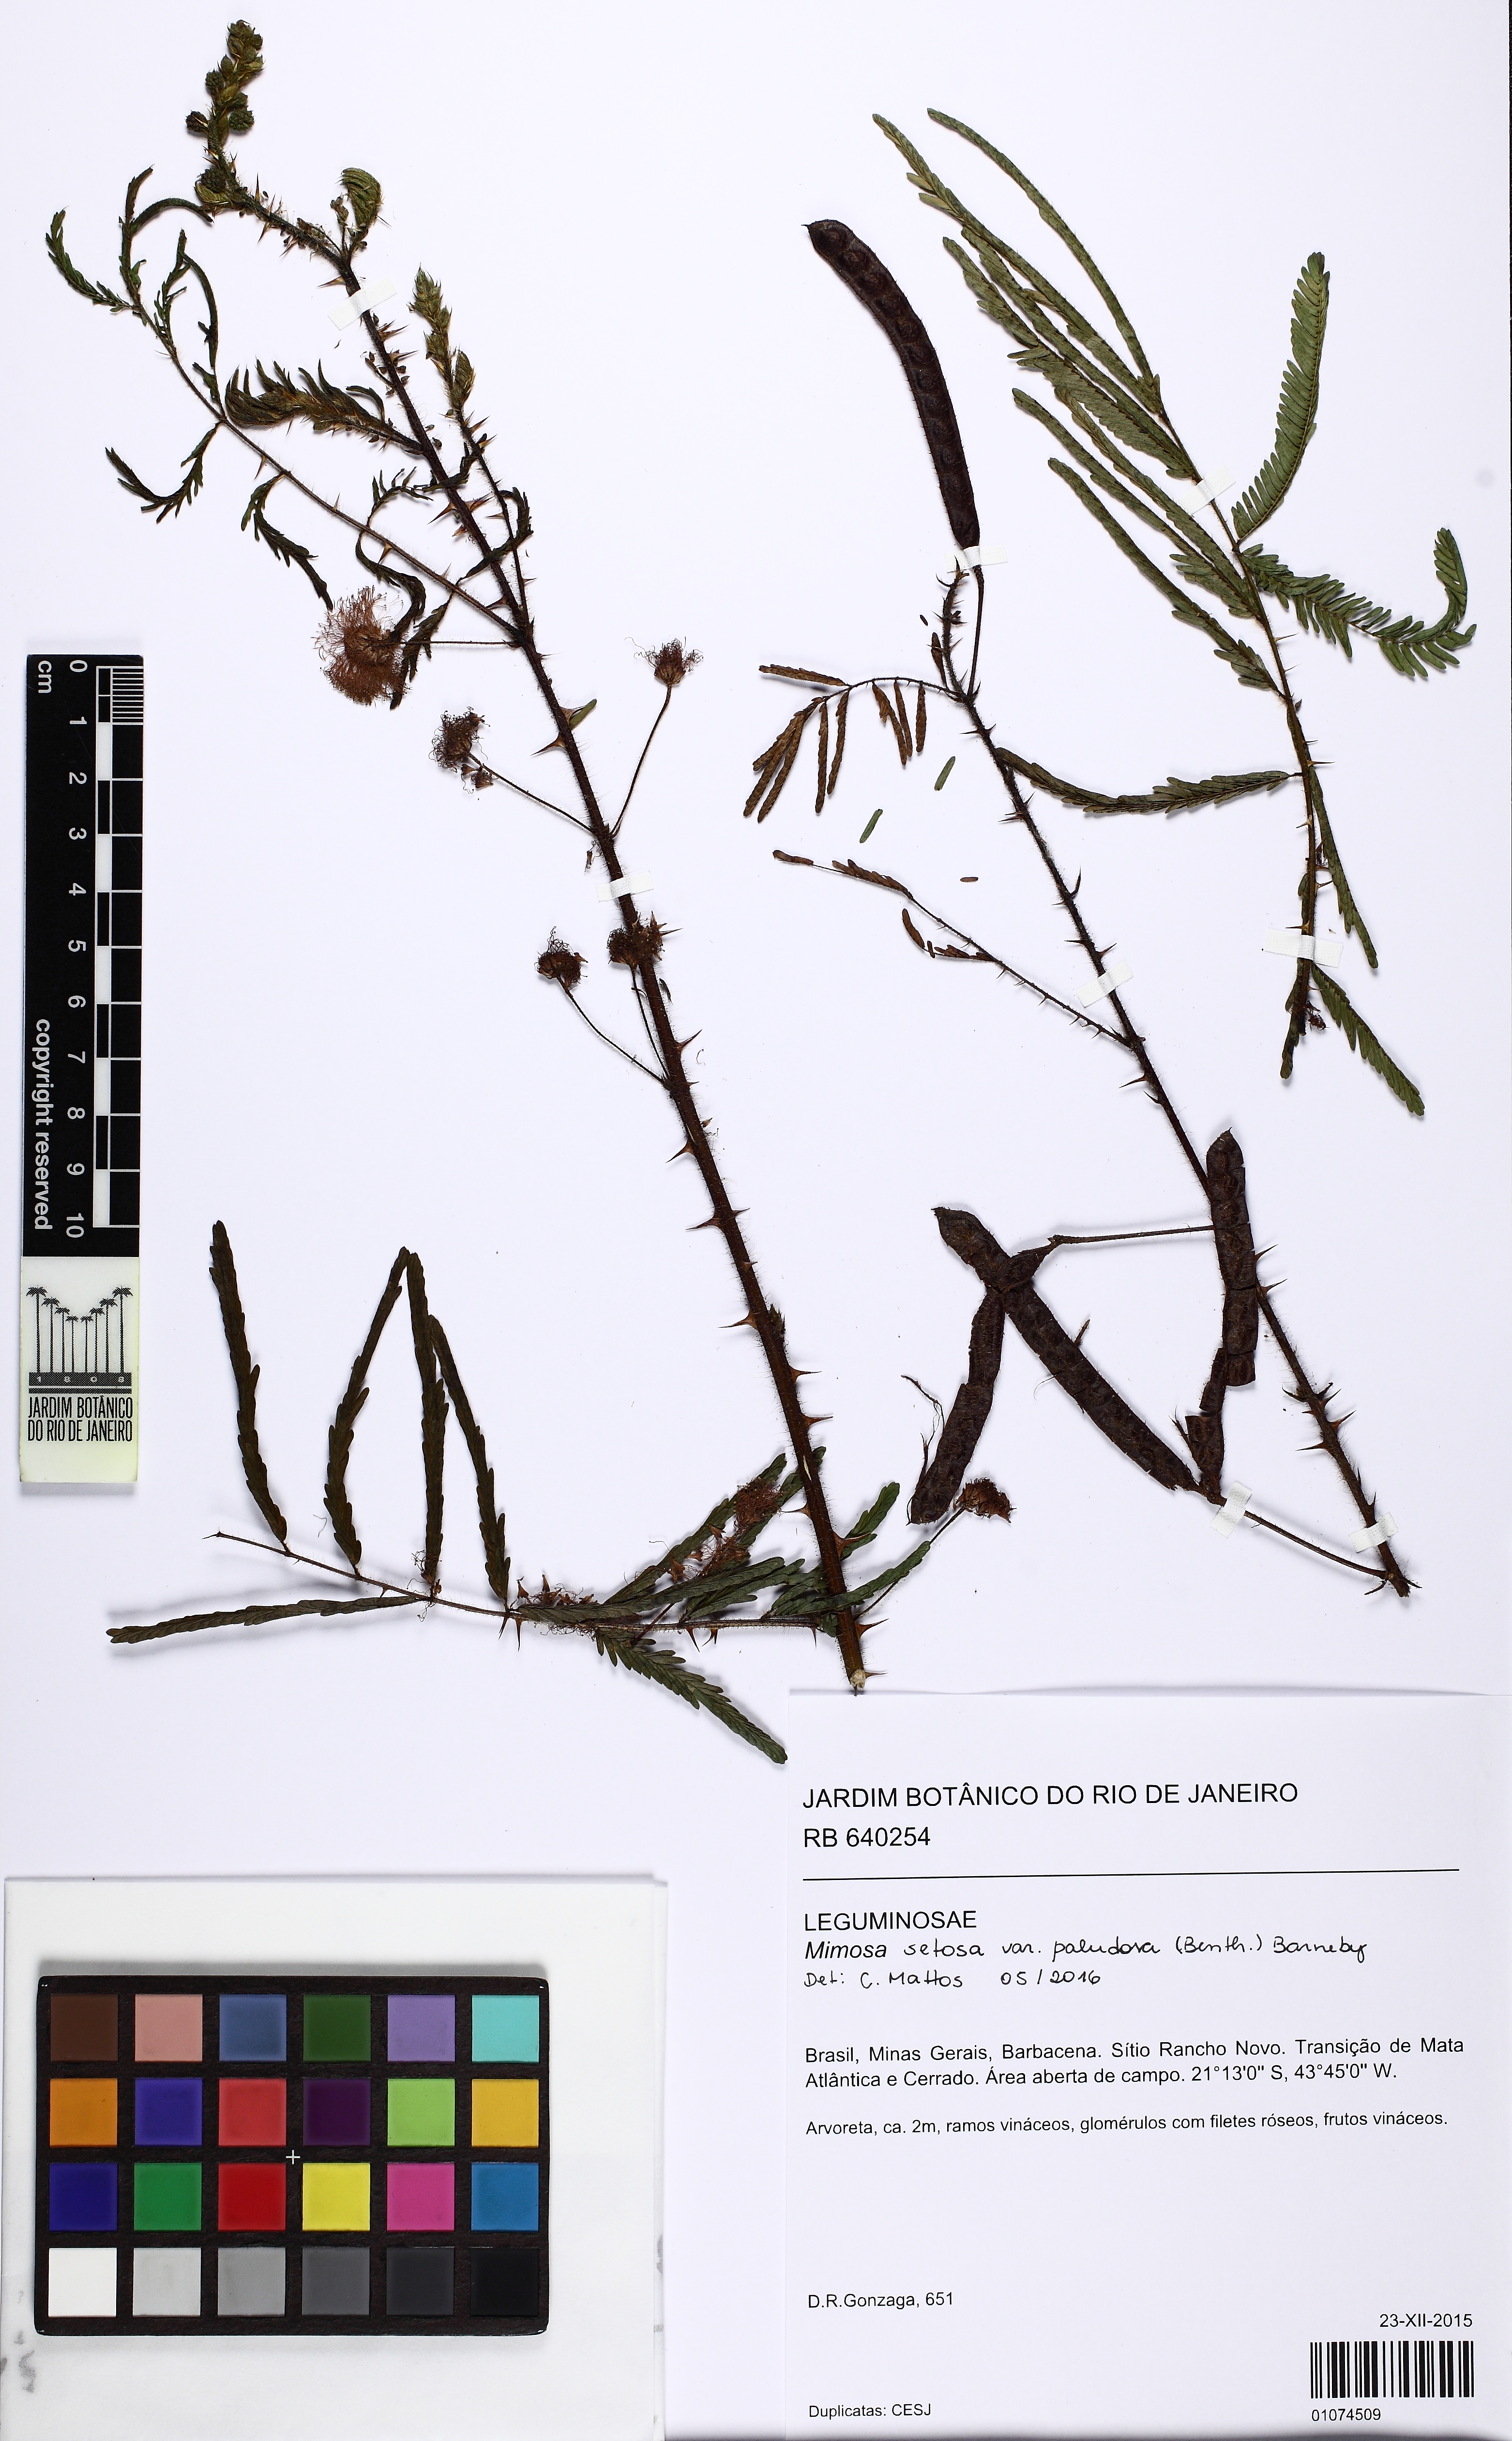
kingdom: Plantae
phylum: Tracheophyta
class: Magnoliopsida
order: Fabales
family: Fabaceae
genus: Mimosa
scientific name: Mimosa paludosa
